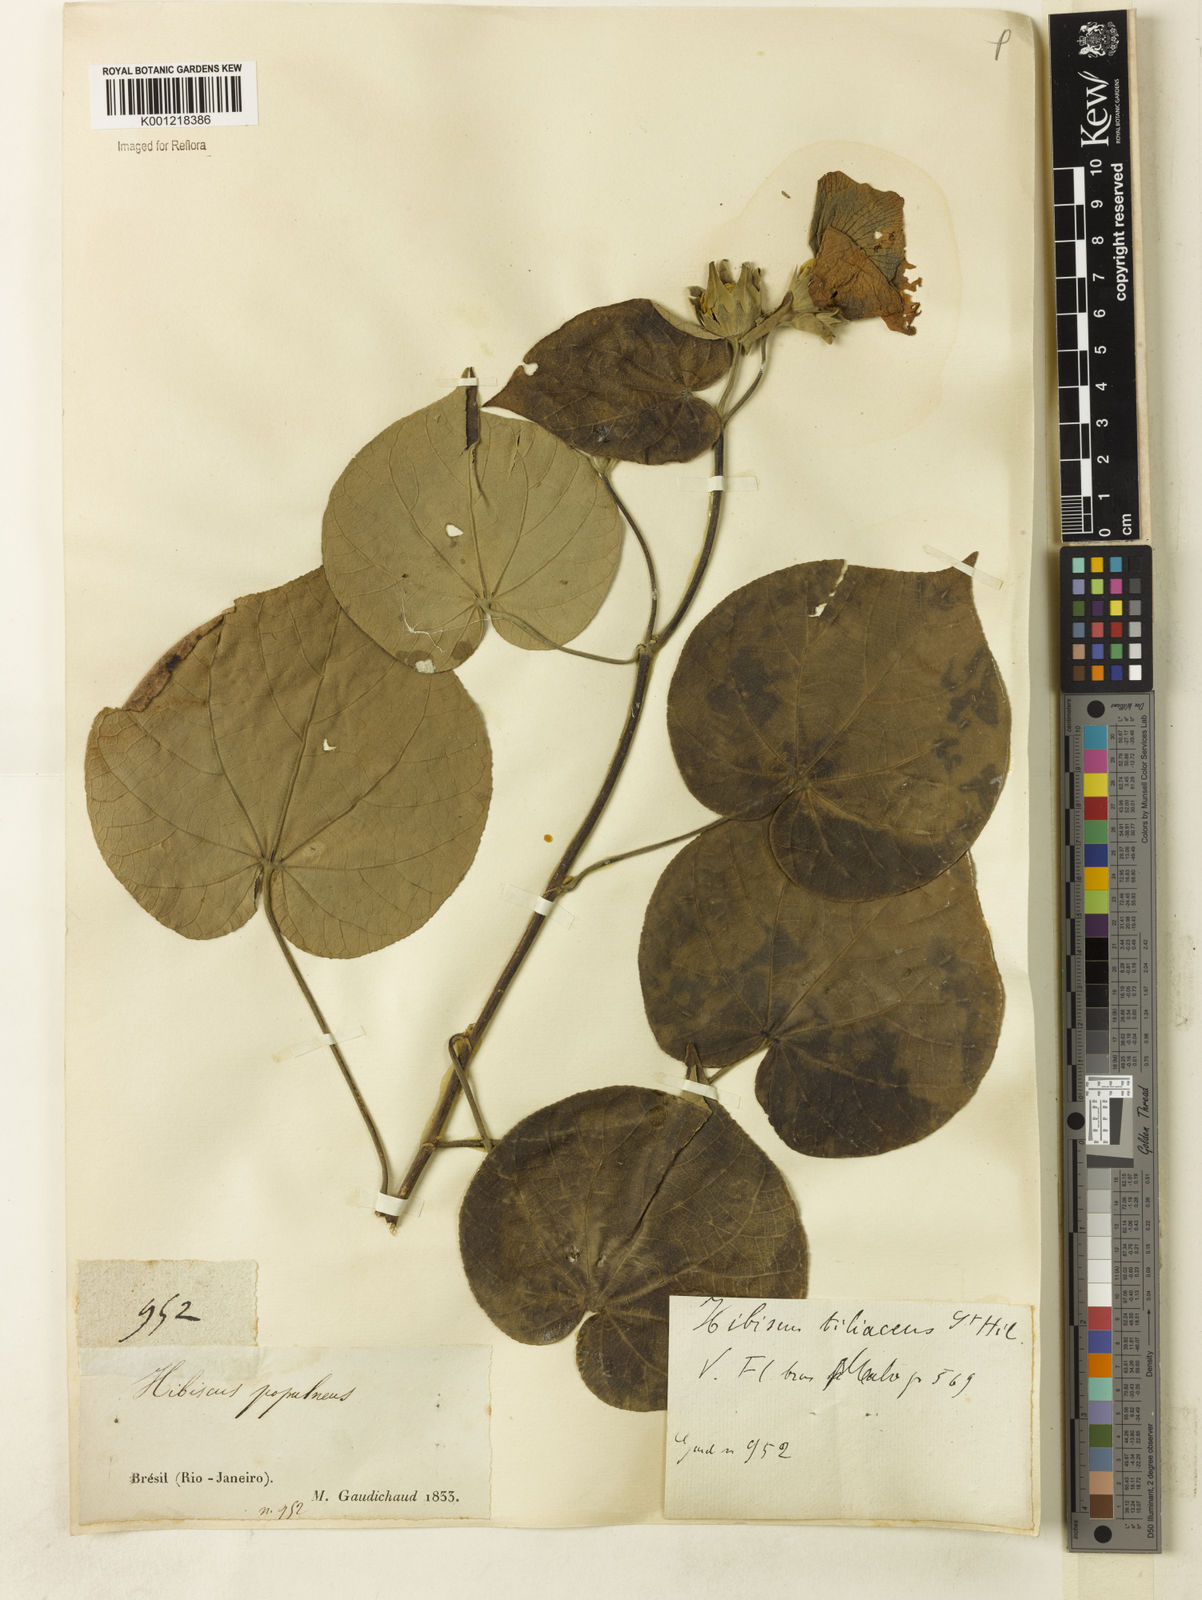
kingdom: Plantae
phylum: Tracheophyta
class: Magnoliopsida
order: Malvales
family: Malvaceae
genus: Hibiscus
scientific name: Hibiscus
